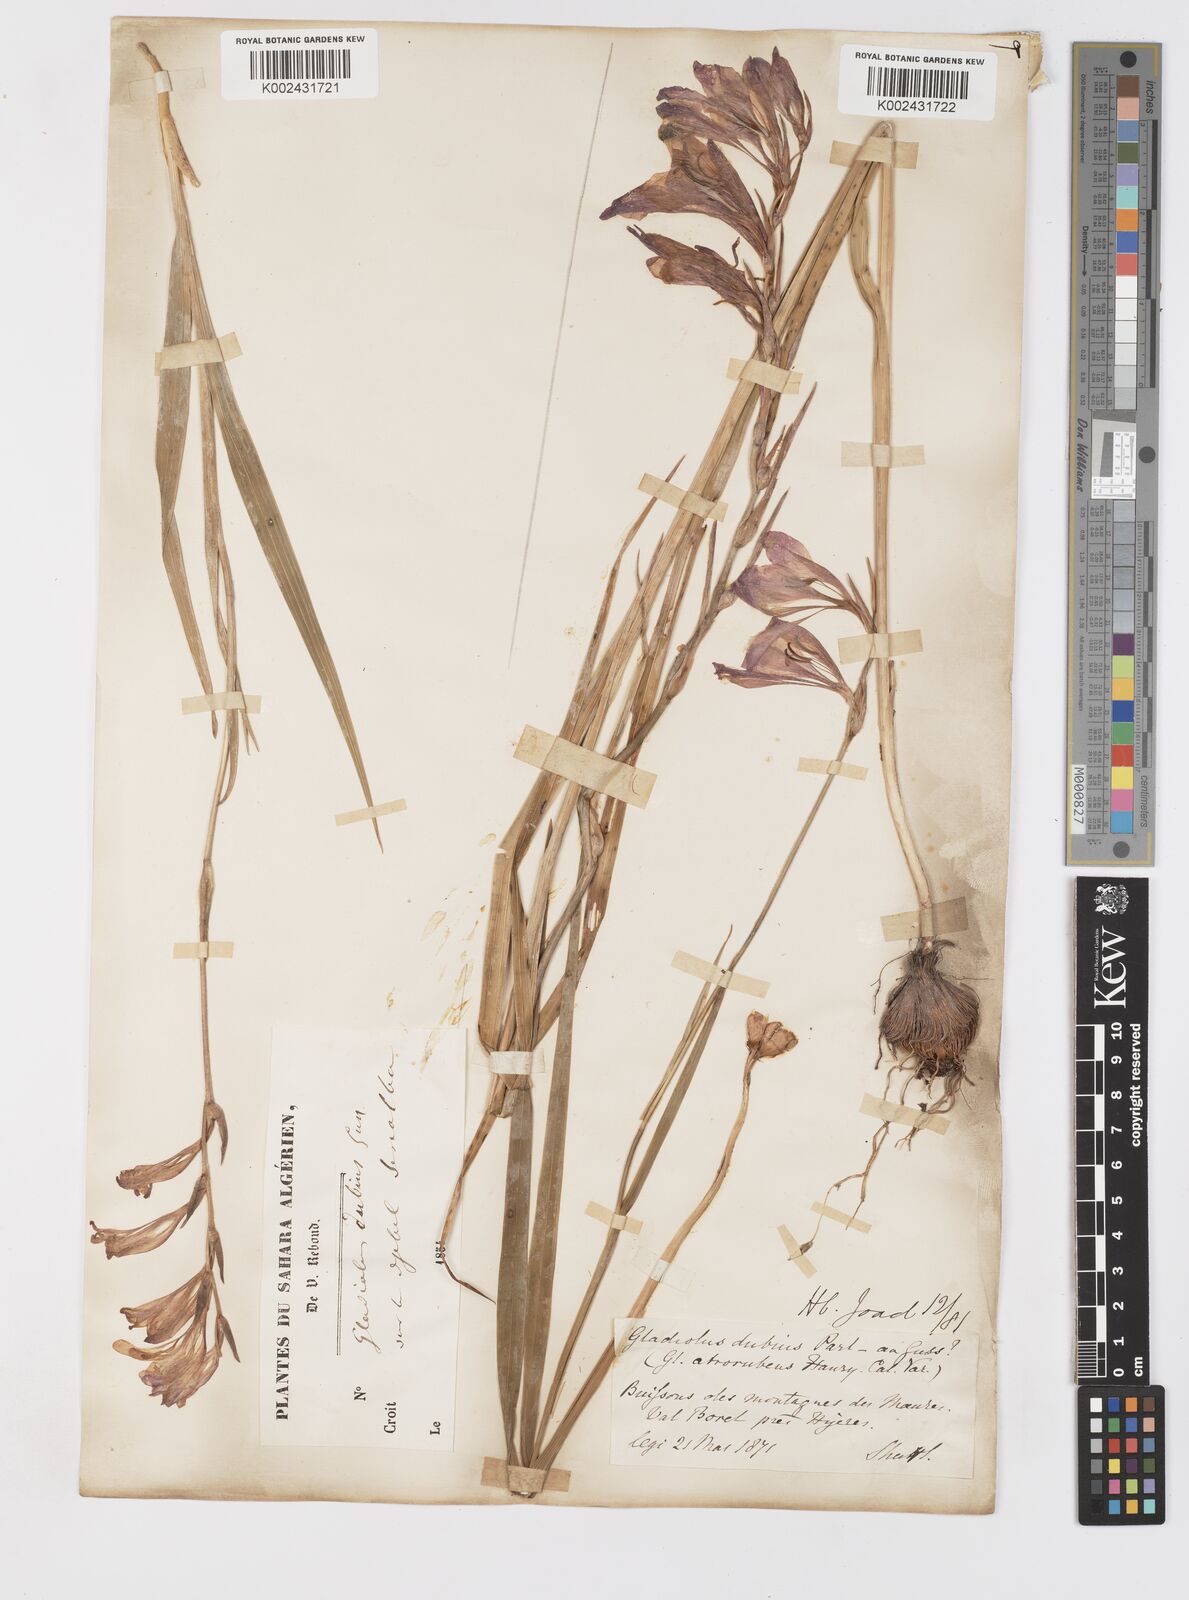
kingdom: Plantae
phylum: Tracheophyta
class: Liliopsida
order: Asparagales
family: Iridaceae
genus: Gladiolus
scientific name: Gladiolus italicus
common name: Field gladiolus
